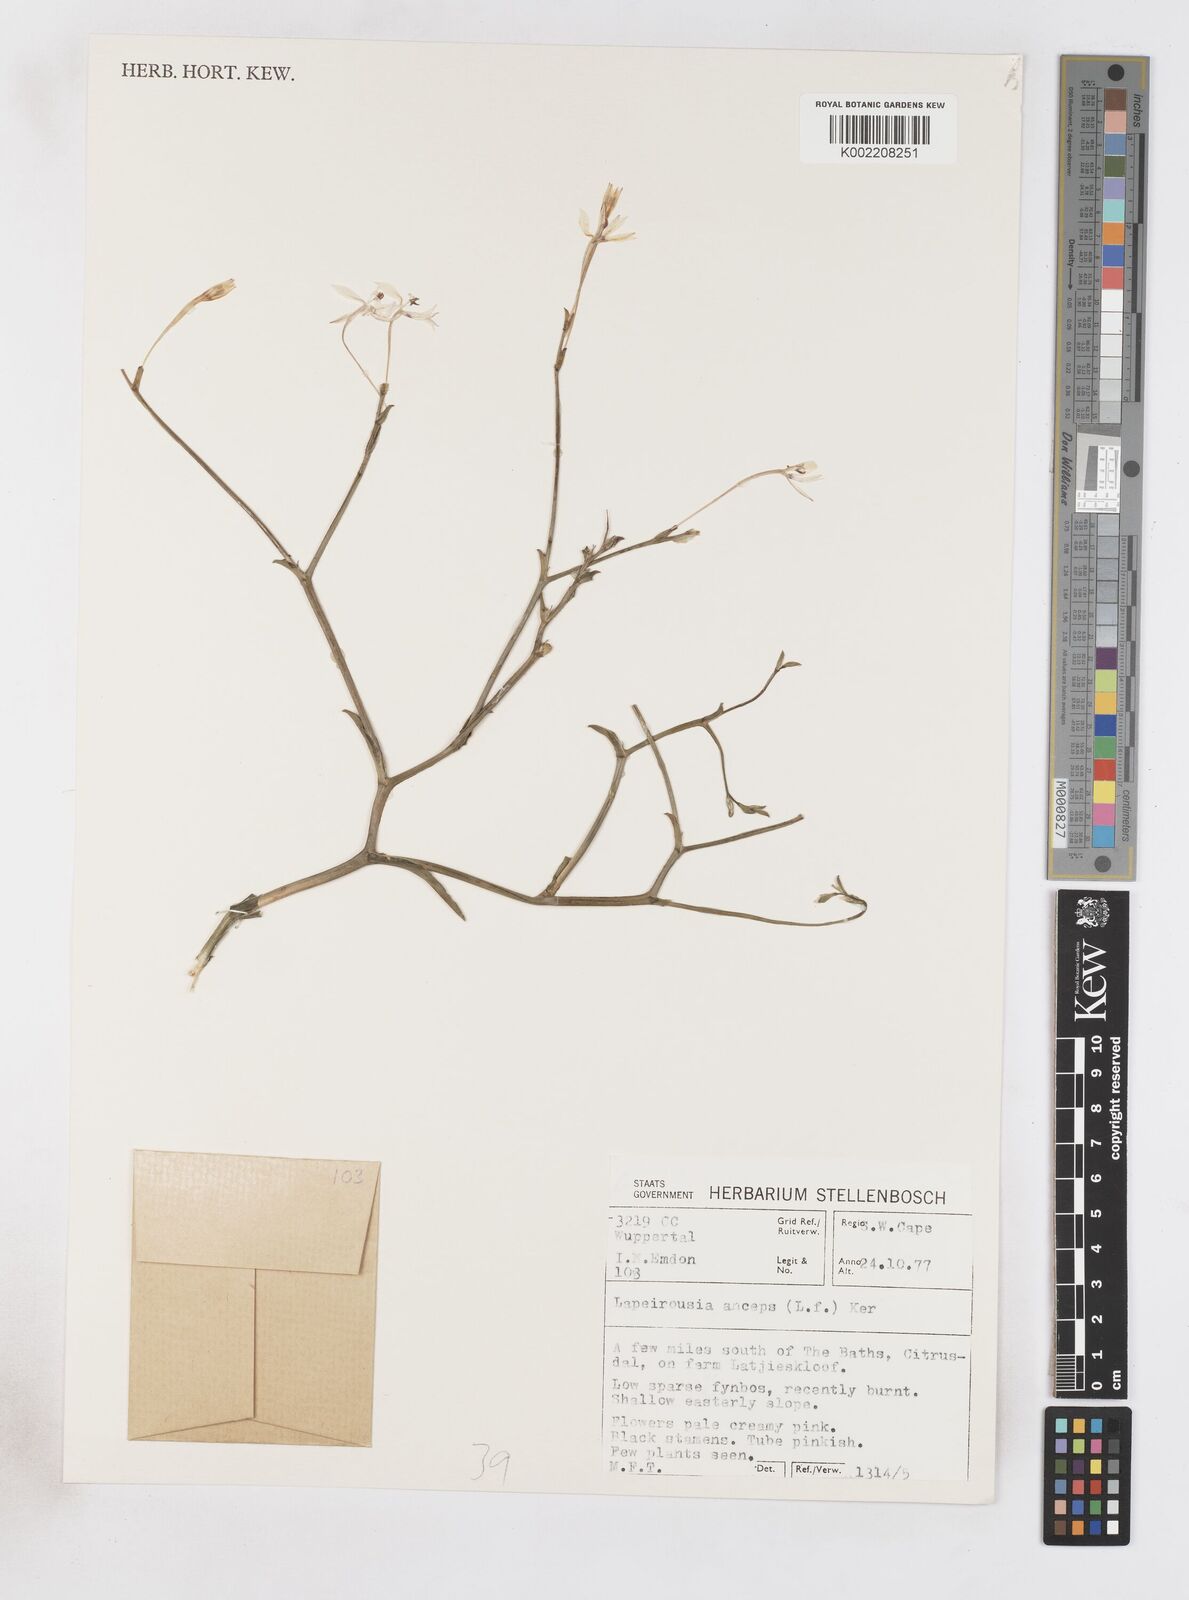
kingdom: Plantae
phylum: Tracheophyta
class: Liliopsida
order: Asparagales
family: Iridaceae
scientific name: Iridaceae
